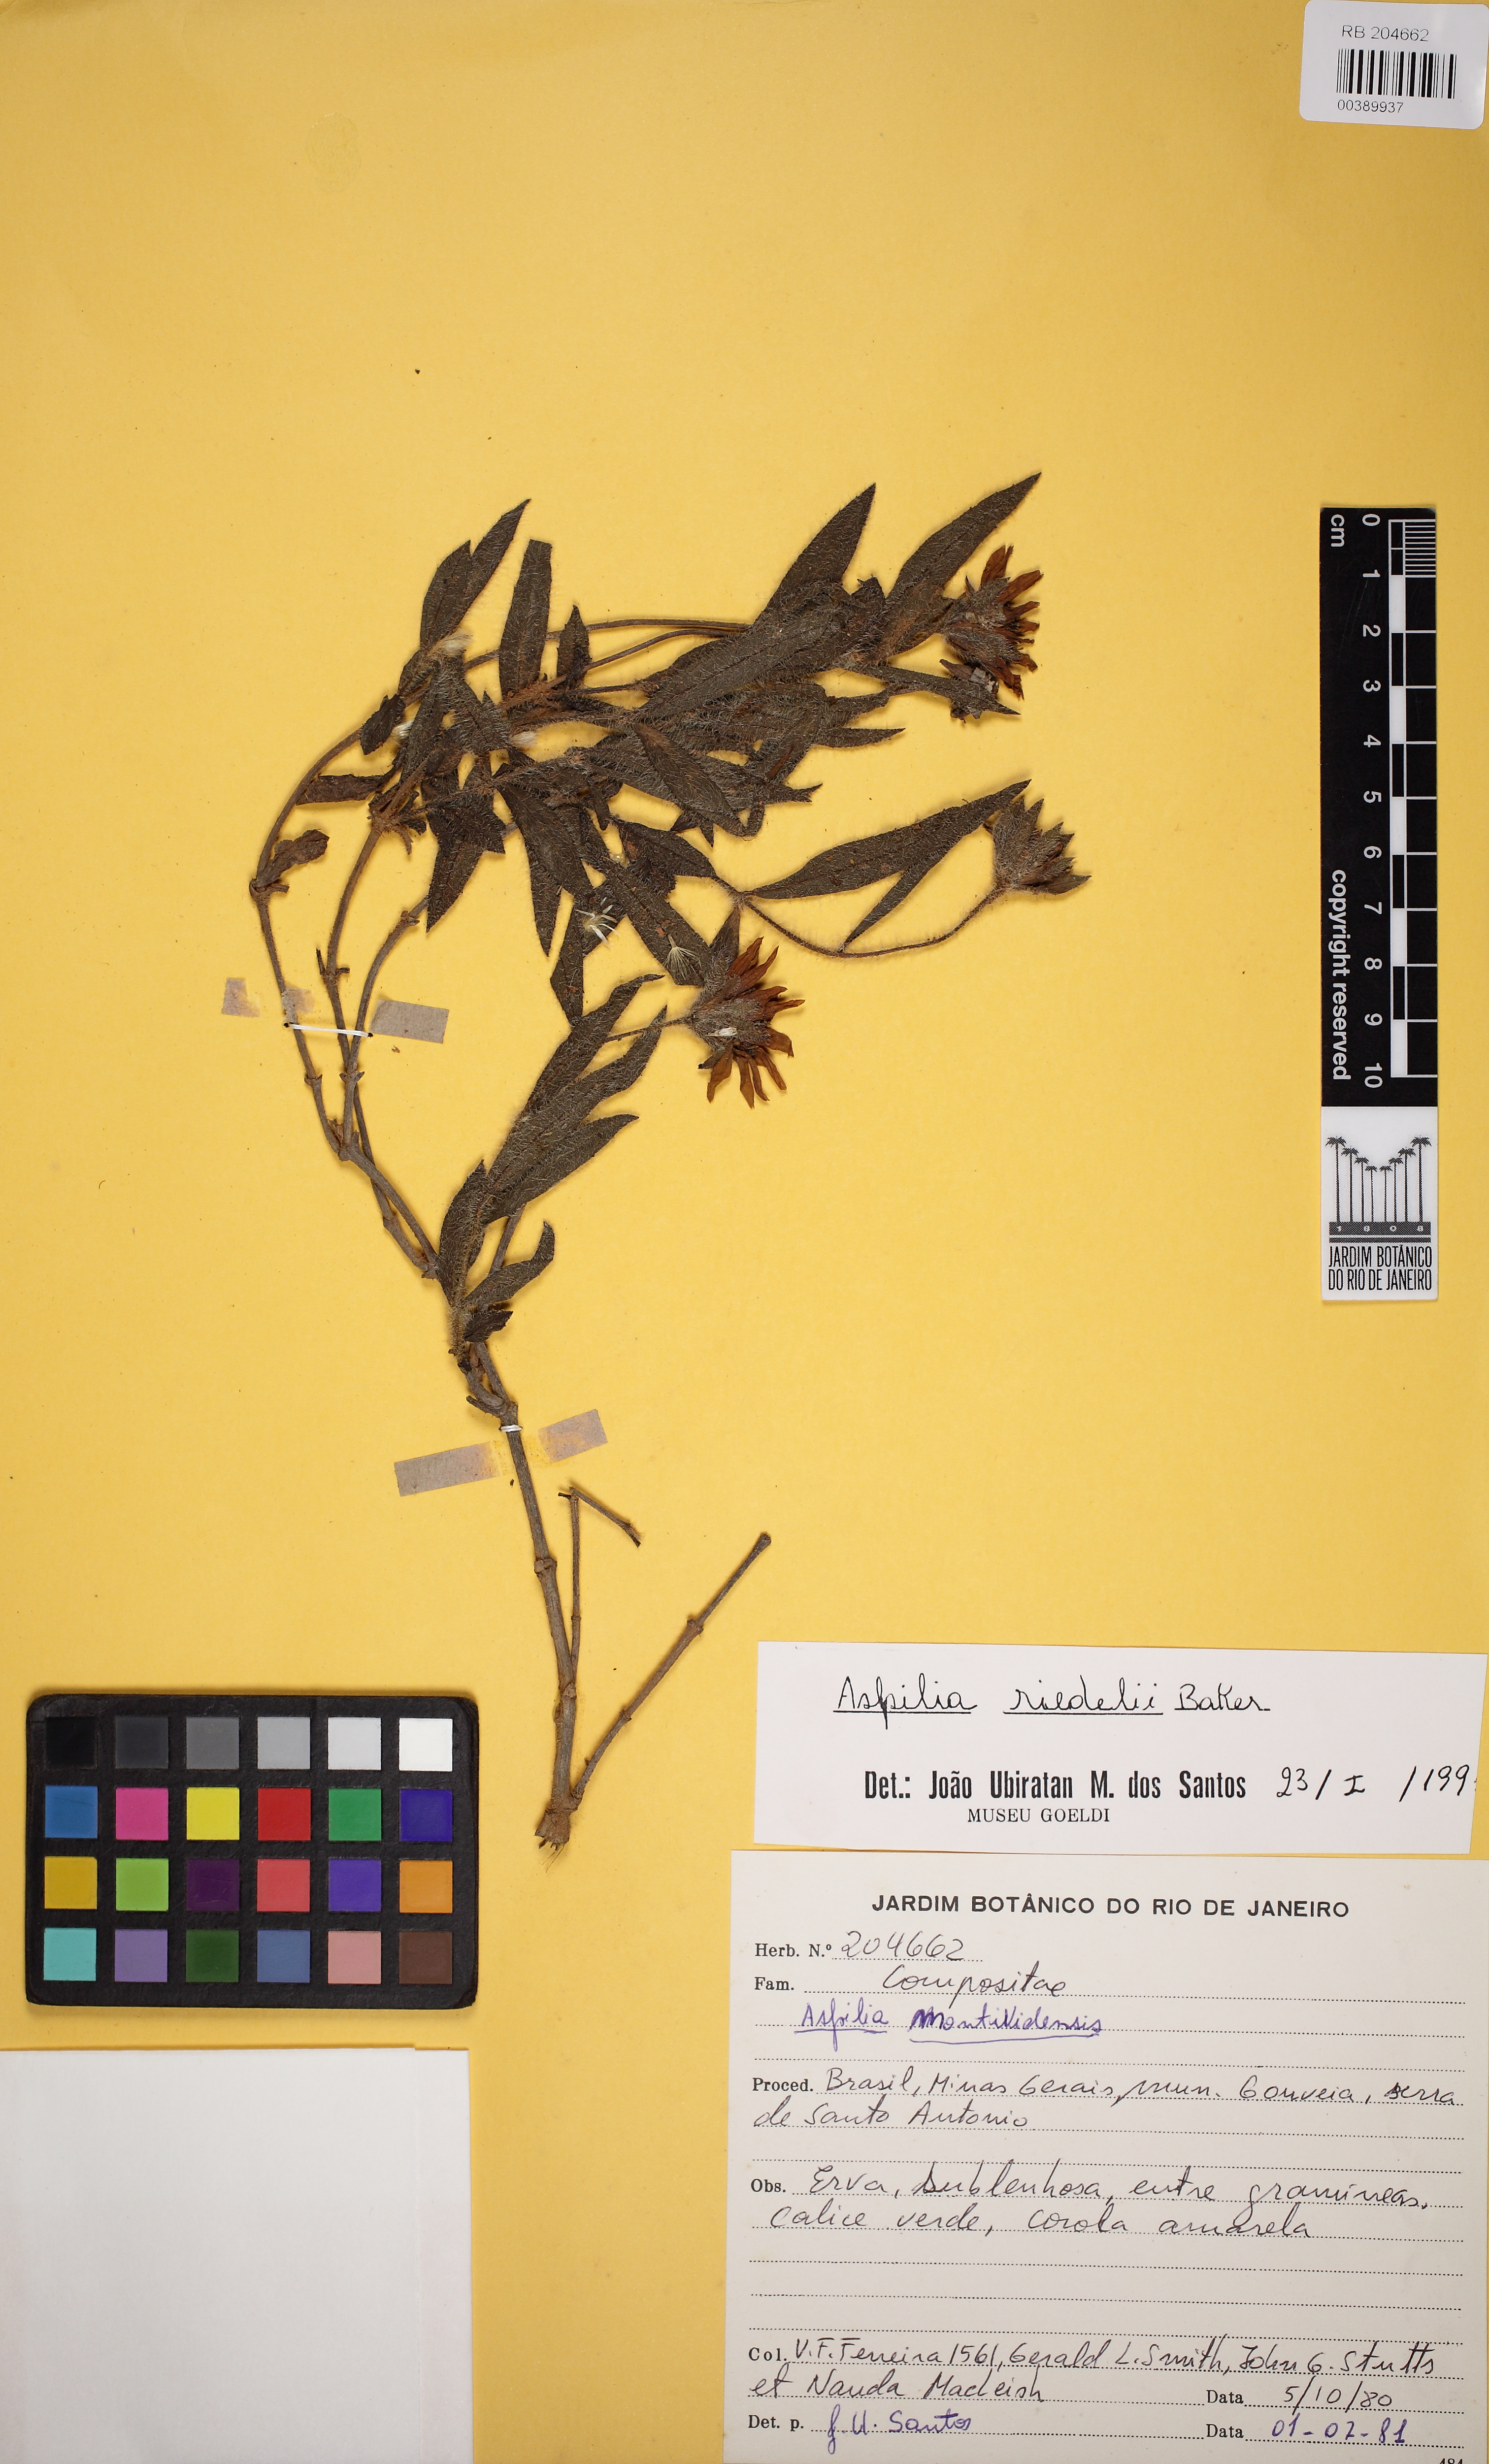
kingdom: Plantae
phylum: Tracheophyta
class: Magnoliopsida
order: Asterales
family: Asteraceae
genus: Wedelia
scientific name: Wedelia riedellii
